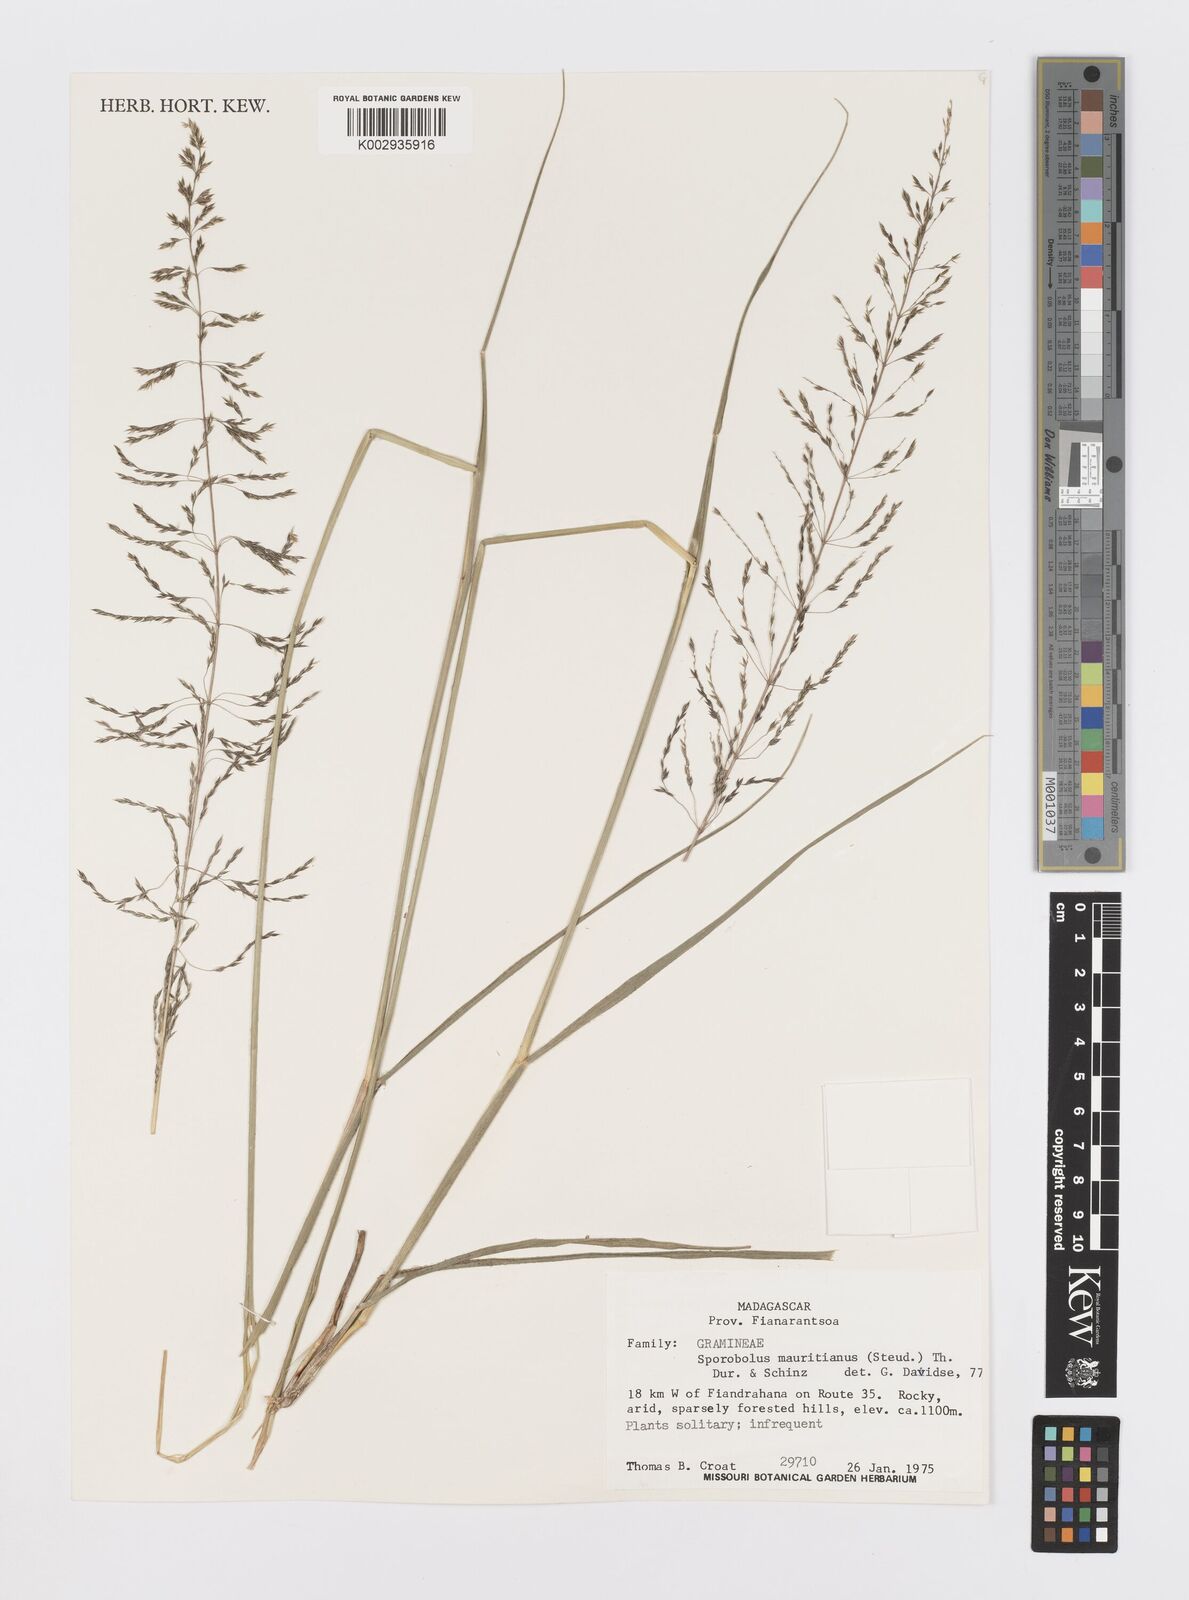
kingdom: Plantae
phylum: Tracheophyta
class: Liliopsida
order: Poales
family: Poaceae
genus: Sporobolus
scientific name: Sporobolus subulatus
